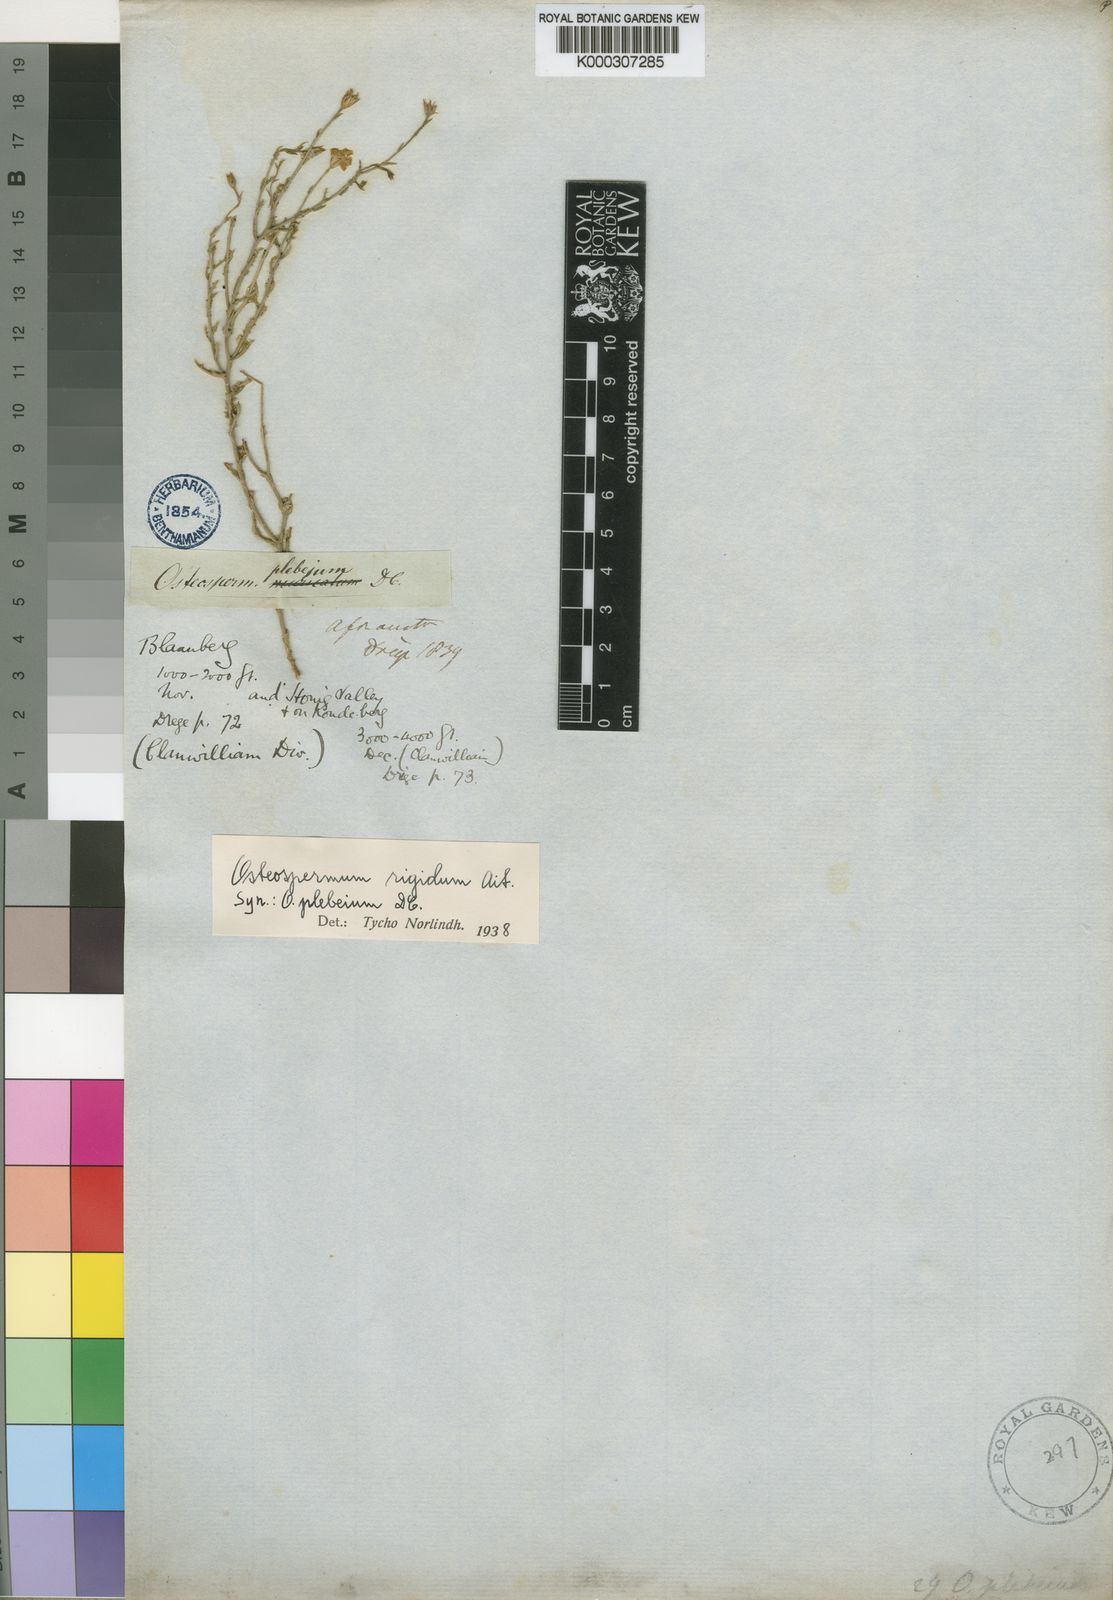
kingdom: Plantae
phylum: Tracheophyta
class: Magnoliopsida
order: Asterales
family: Asteraceae
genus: Osteospermum
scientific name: Osteospermum rigidum
